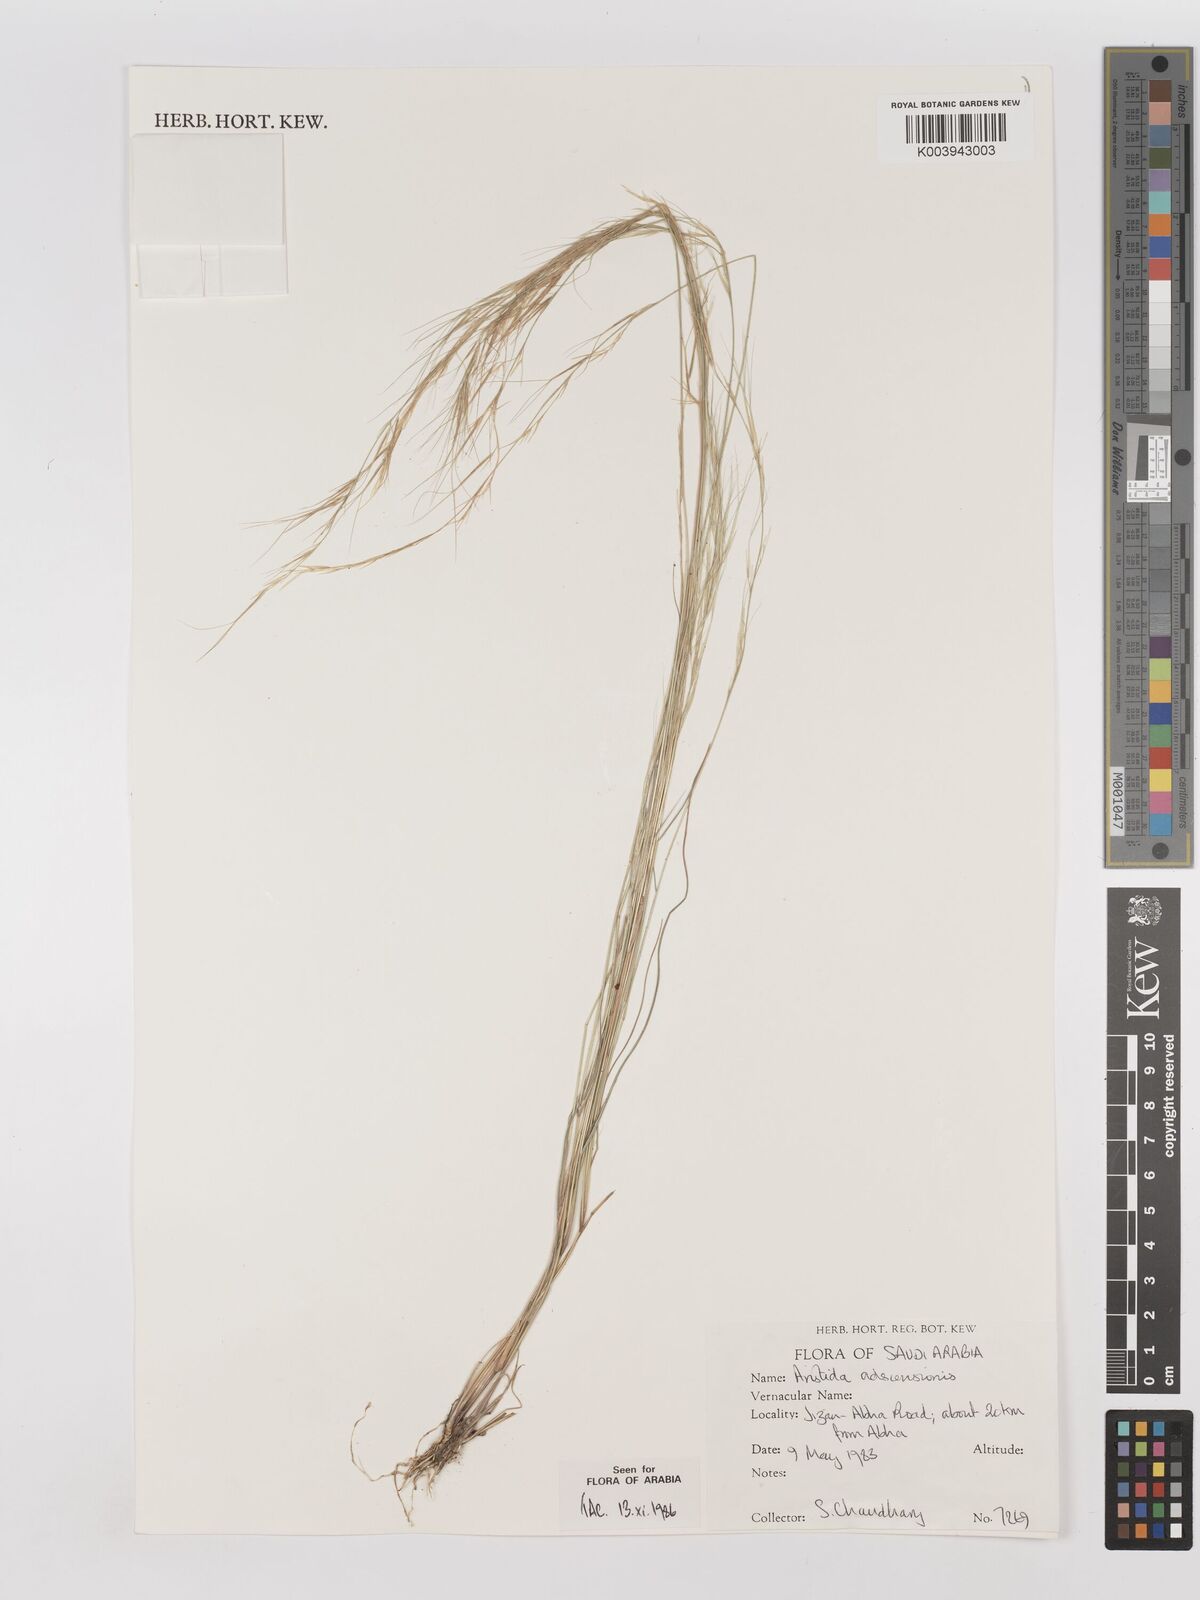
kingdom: Plantae
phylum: Tracheophyta
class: Liliopsida
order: Poales
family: Poaceae
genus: Aristida
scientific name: Aristida adscensionis
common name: Sixweeks threeawn
